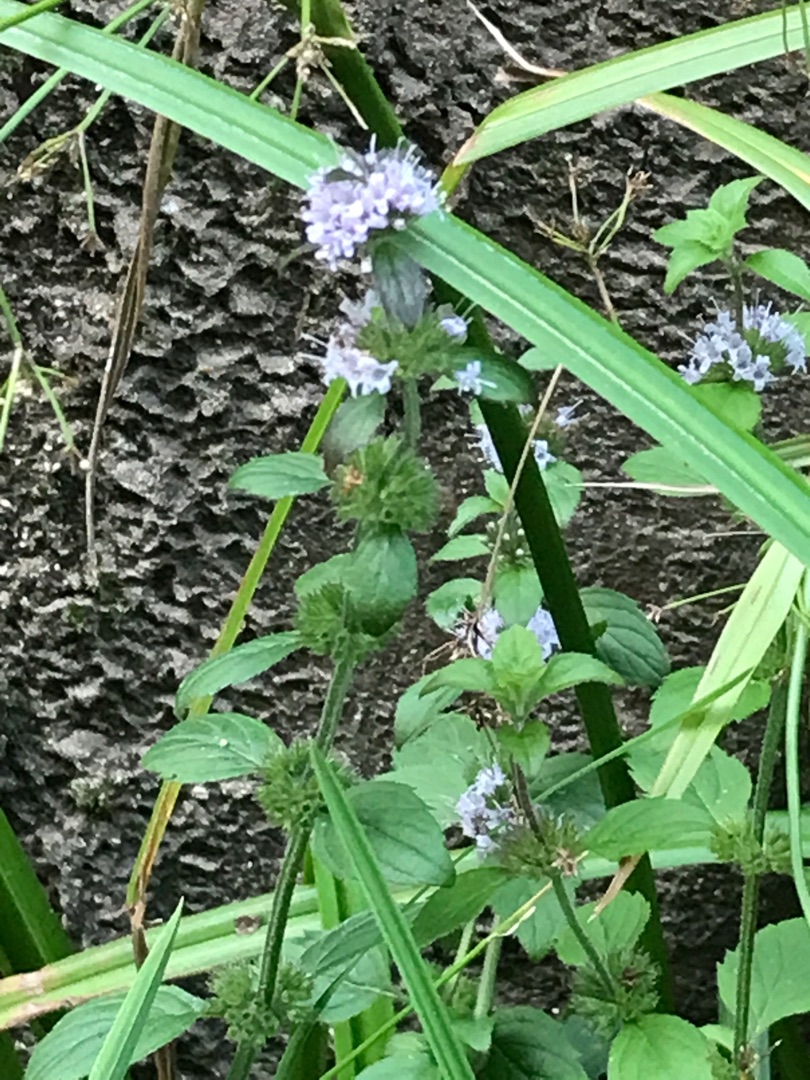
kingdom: Plantae
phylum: Tracheophyta
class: Magnoliopsida
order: Lamiales
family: Lamiaceae
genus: Mentha
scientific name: Mentha
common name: Mynteslægten
